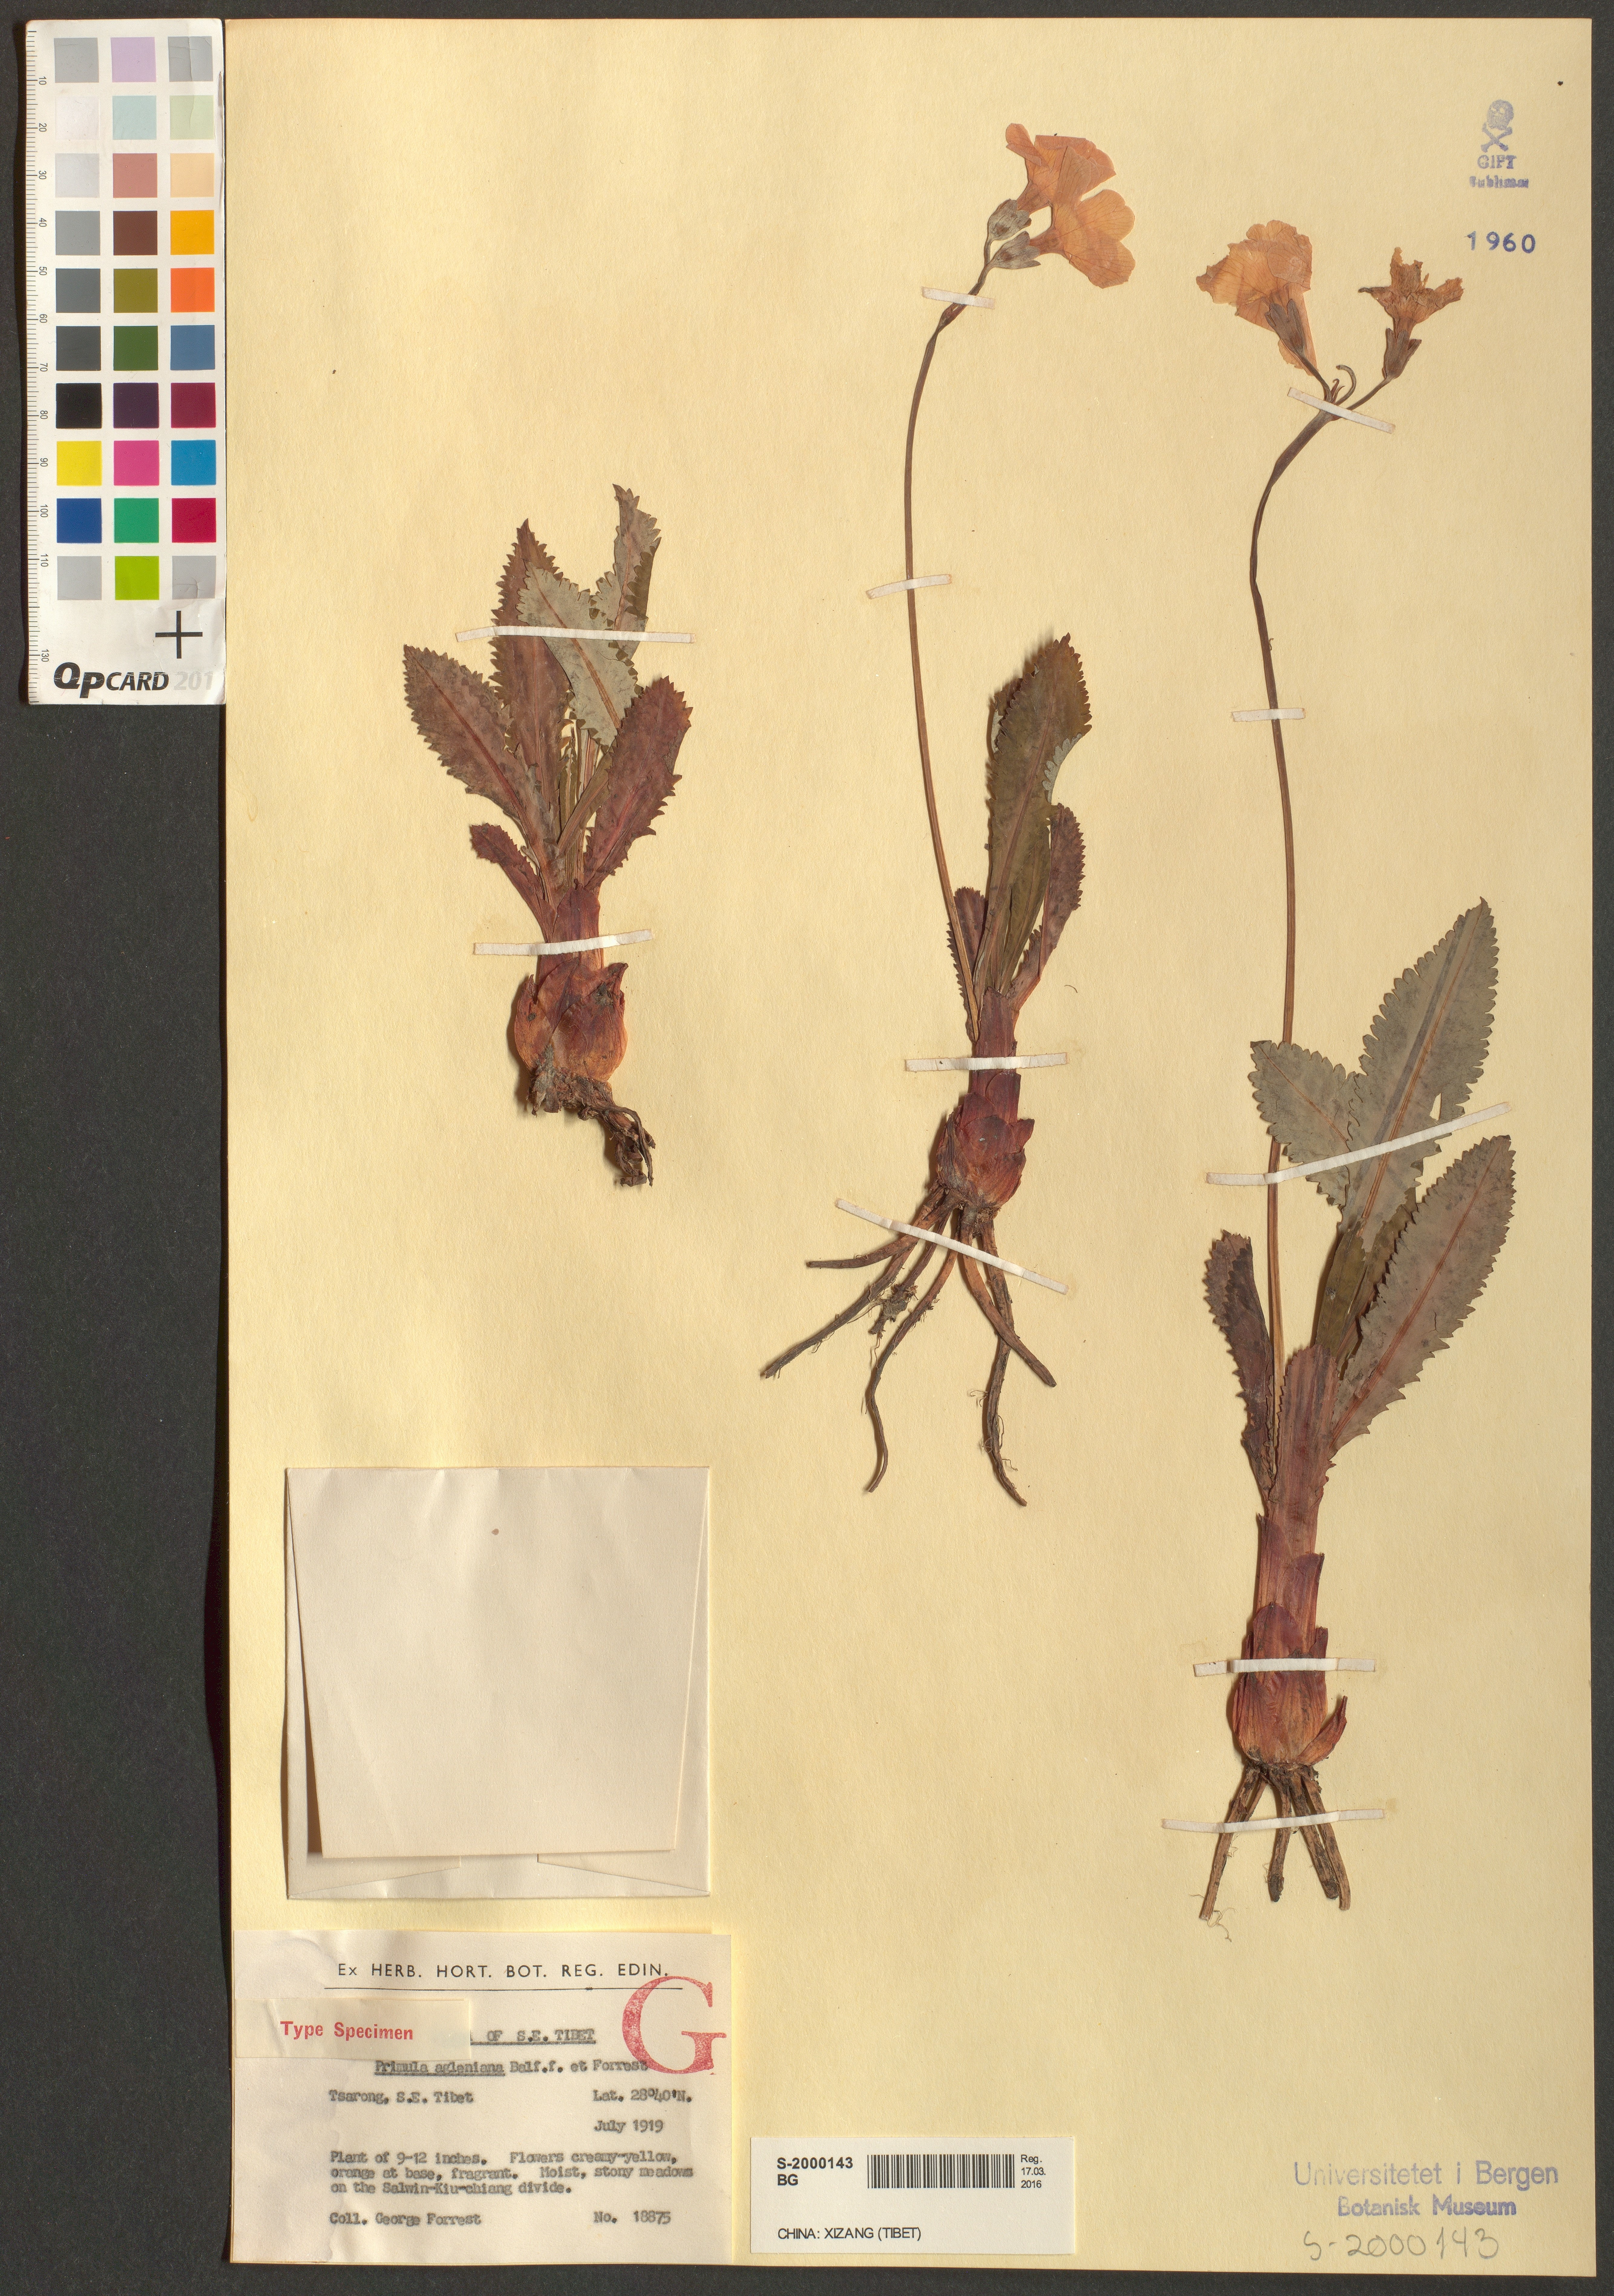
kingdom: Plantae
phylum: Tracheophyta
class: Magnoliopsida
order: Ericales
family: Primulaceae
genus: Primula
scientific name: Primula agleniana
